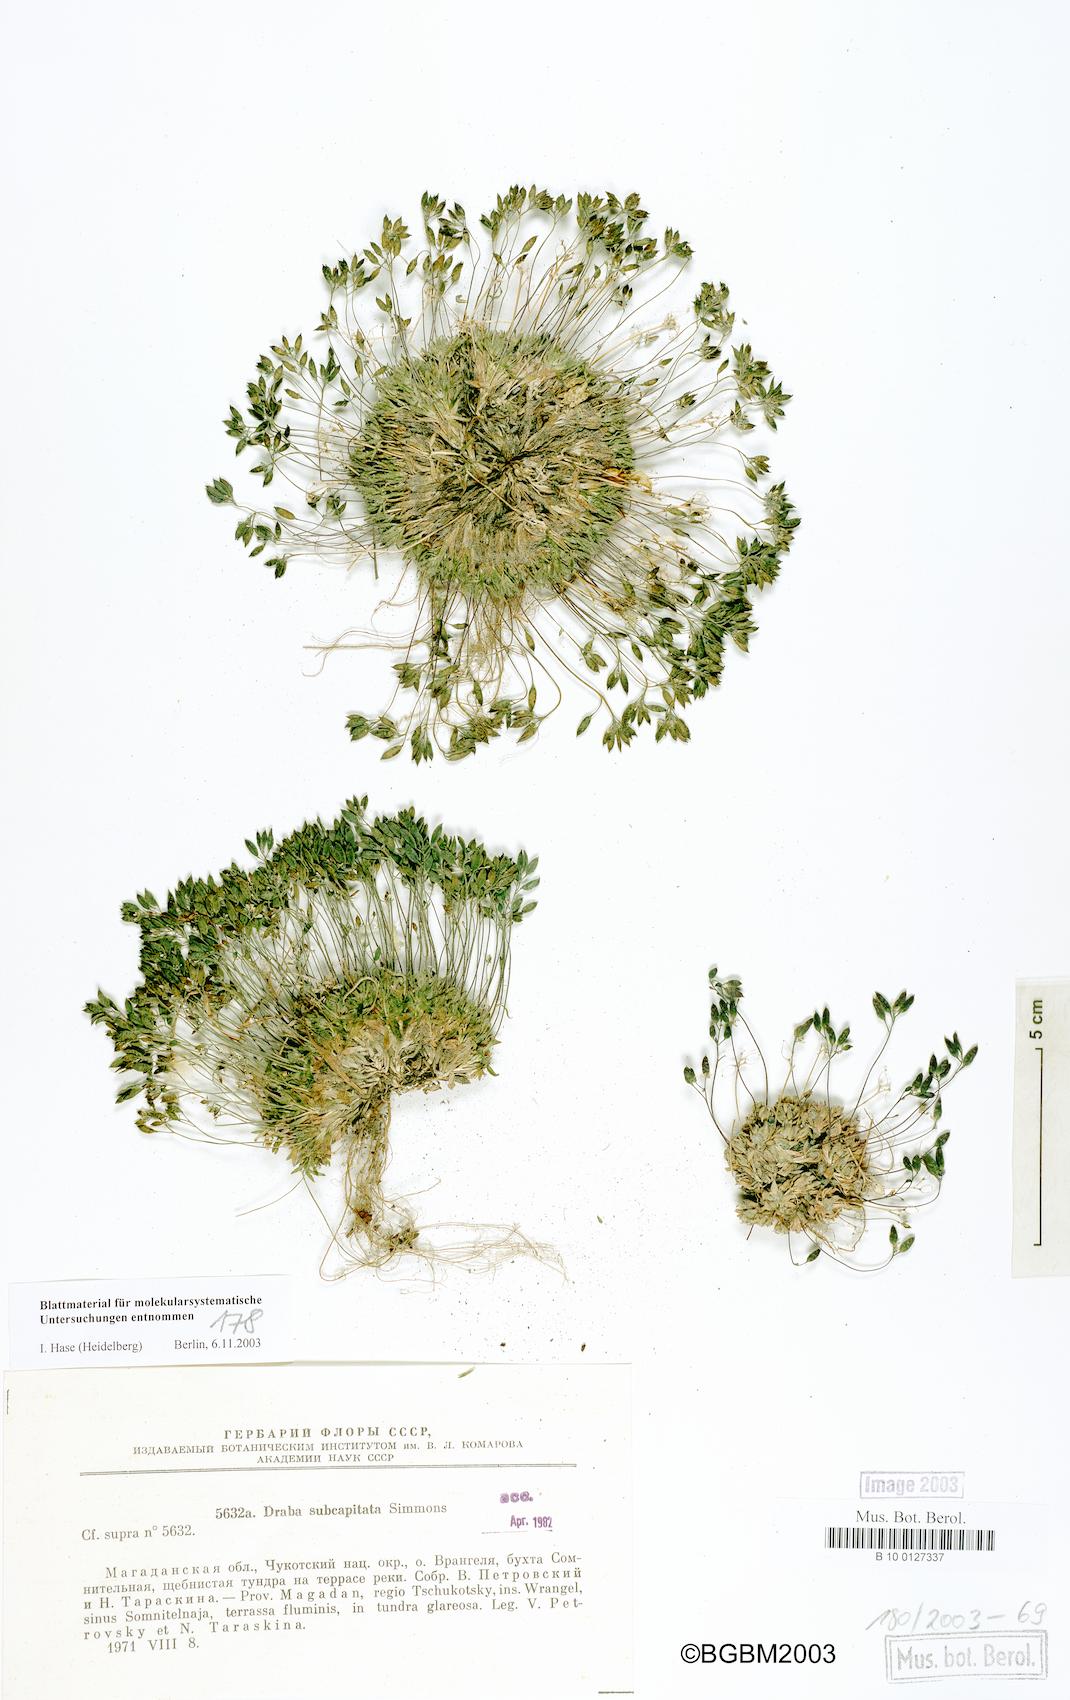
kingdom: Plantae
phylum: Tracheophyta
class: Magnoliopsida
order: Brassicales
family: Brassicaceae
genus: Draba
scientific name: Draba subcapitata
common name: Ellesmere island draba
